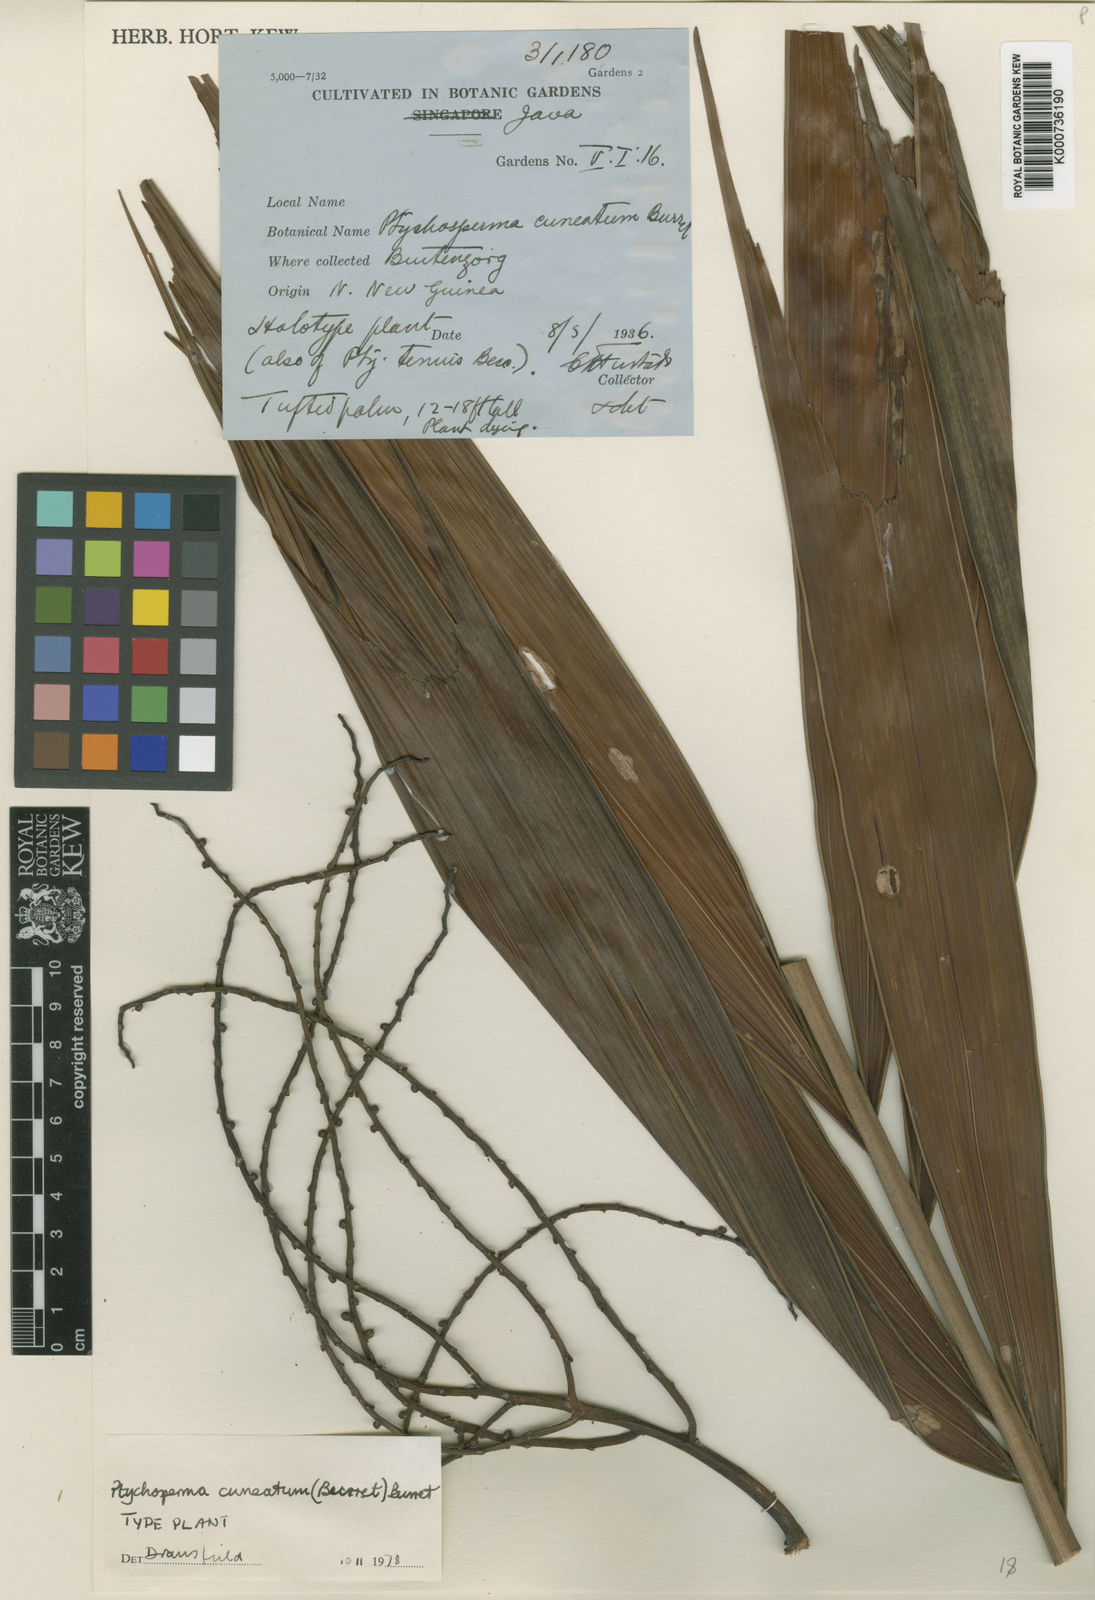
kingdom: Plantae
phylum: Tracheophyta
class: Liliopsida
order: Arecales
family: Arecaceae
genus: Ptychosperma
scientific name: Ptychosperma cuneatum
